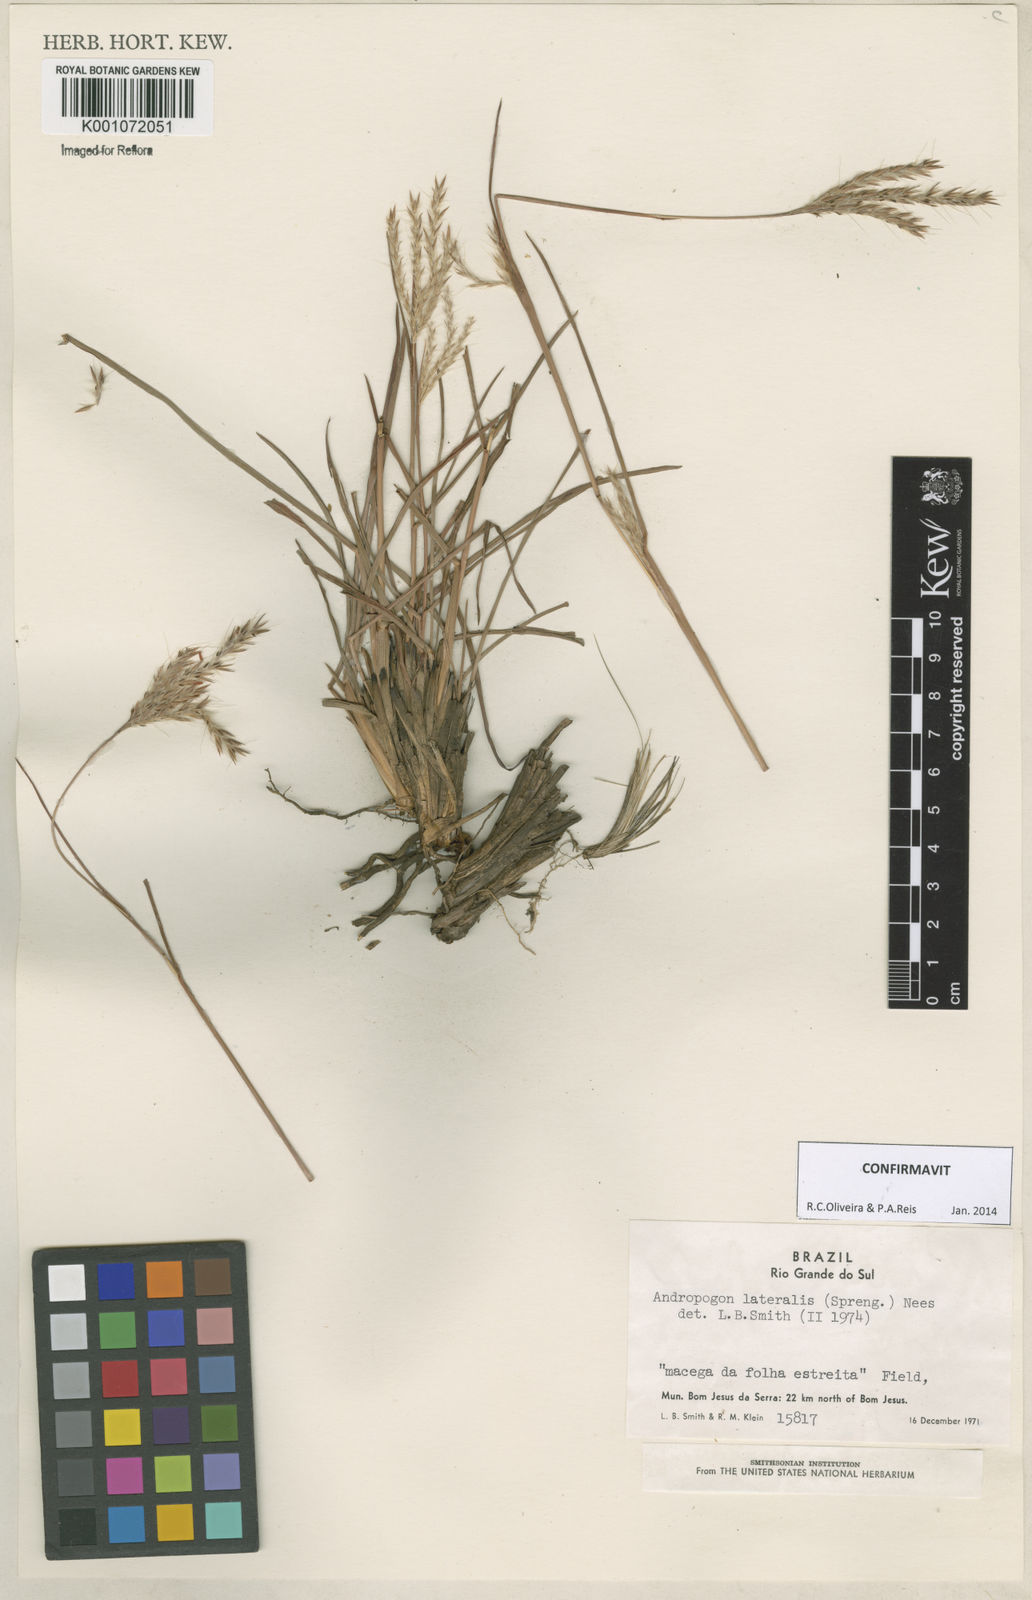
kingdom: Plantae
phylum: Tracheophyta
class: Liliopsida
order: Poales
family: Poaceae
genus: Andropogon
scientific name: Andropogon lateralis
